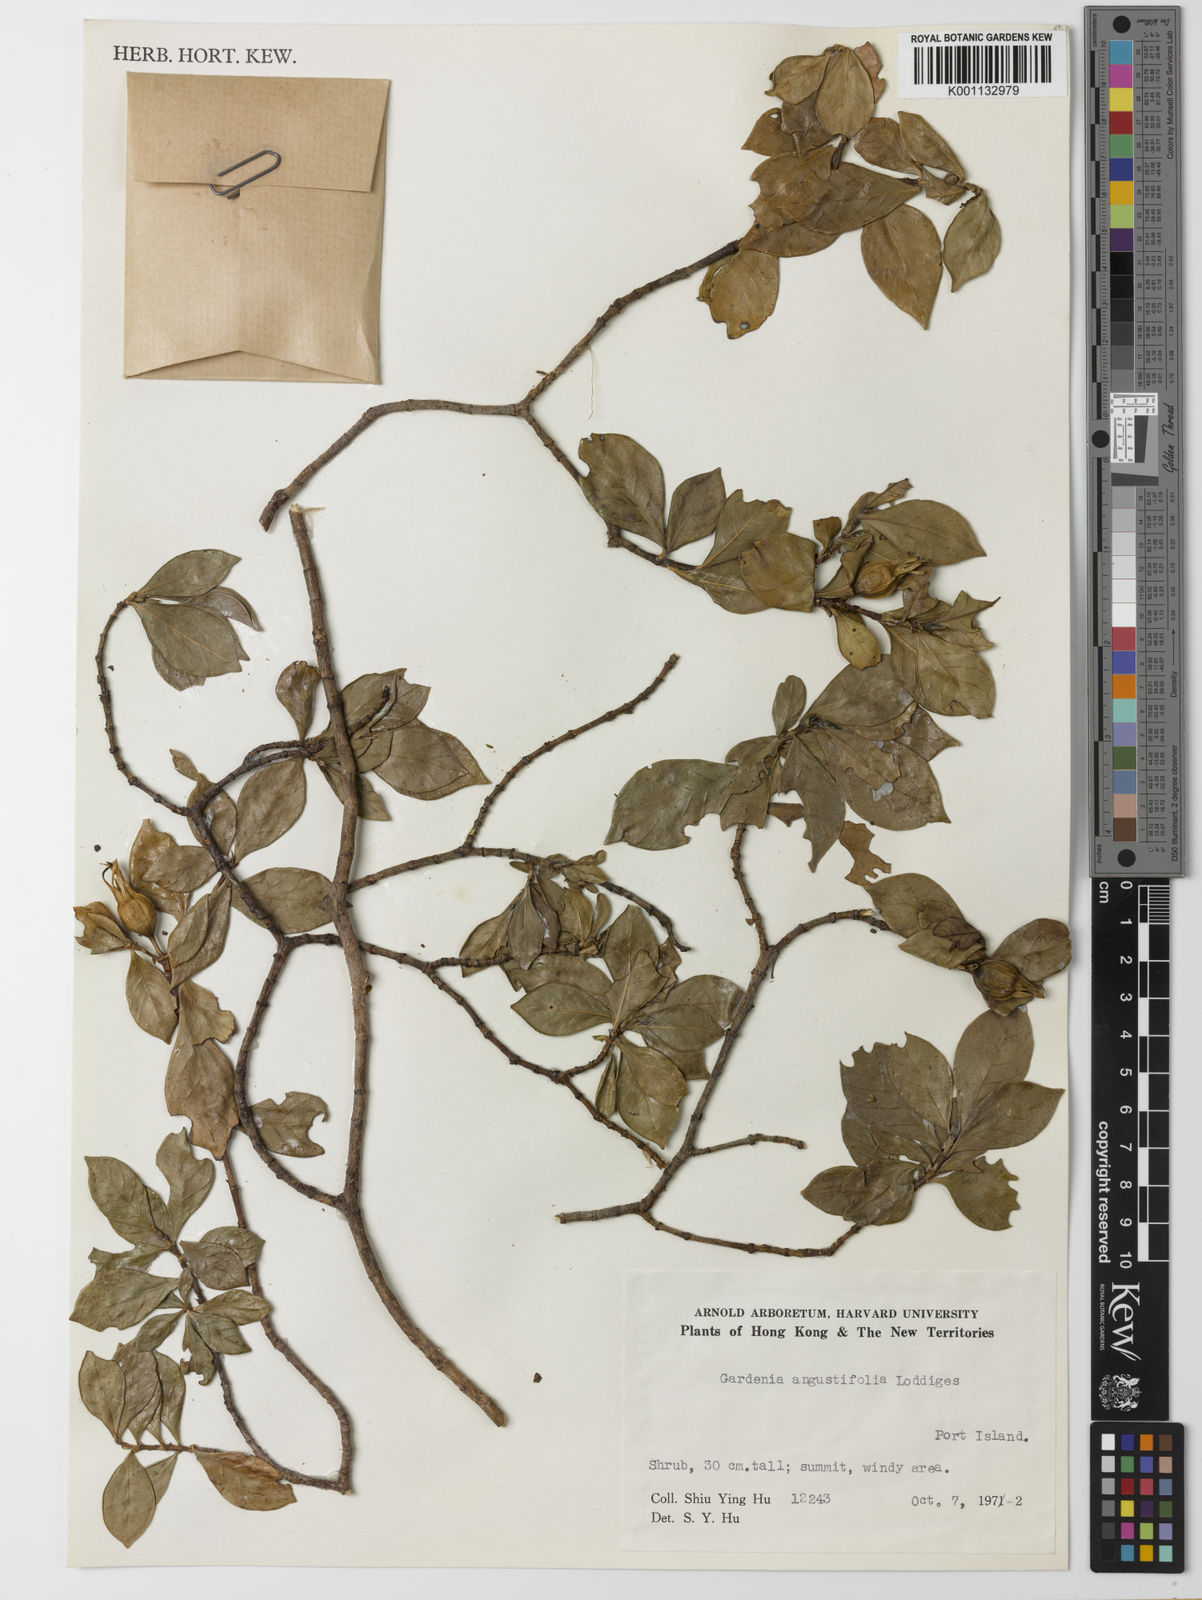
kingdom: Plantae
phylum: Tracheophyta
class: Magnoliopsida
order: Gentianales
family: Rubiaceae
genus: Gardenia
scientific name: Gardenia jasminoides
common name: Cape-jasmine
